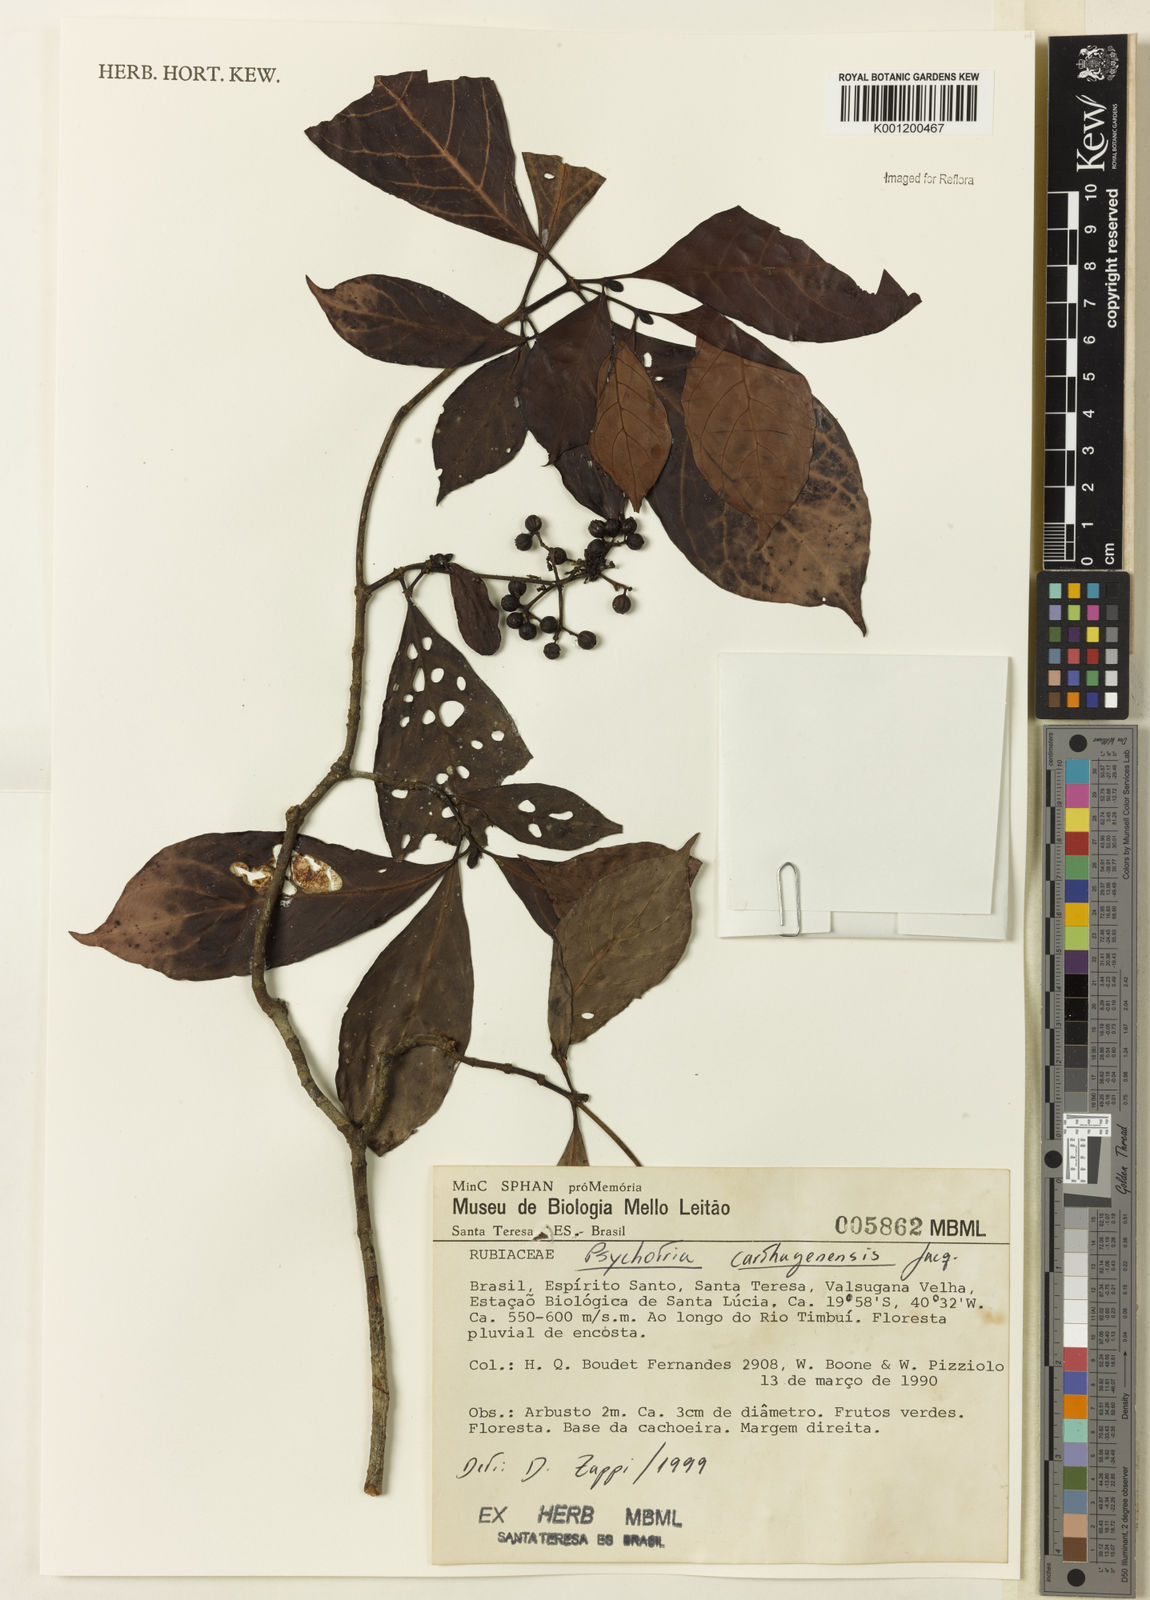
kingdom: Plantae
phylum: Tracheophyta
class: Magnoliopsida
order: Gentianales
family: Rubiaceae
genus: Psychotria
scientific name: Psychotria carthagenensis
